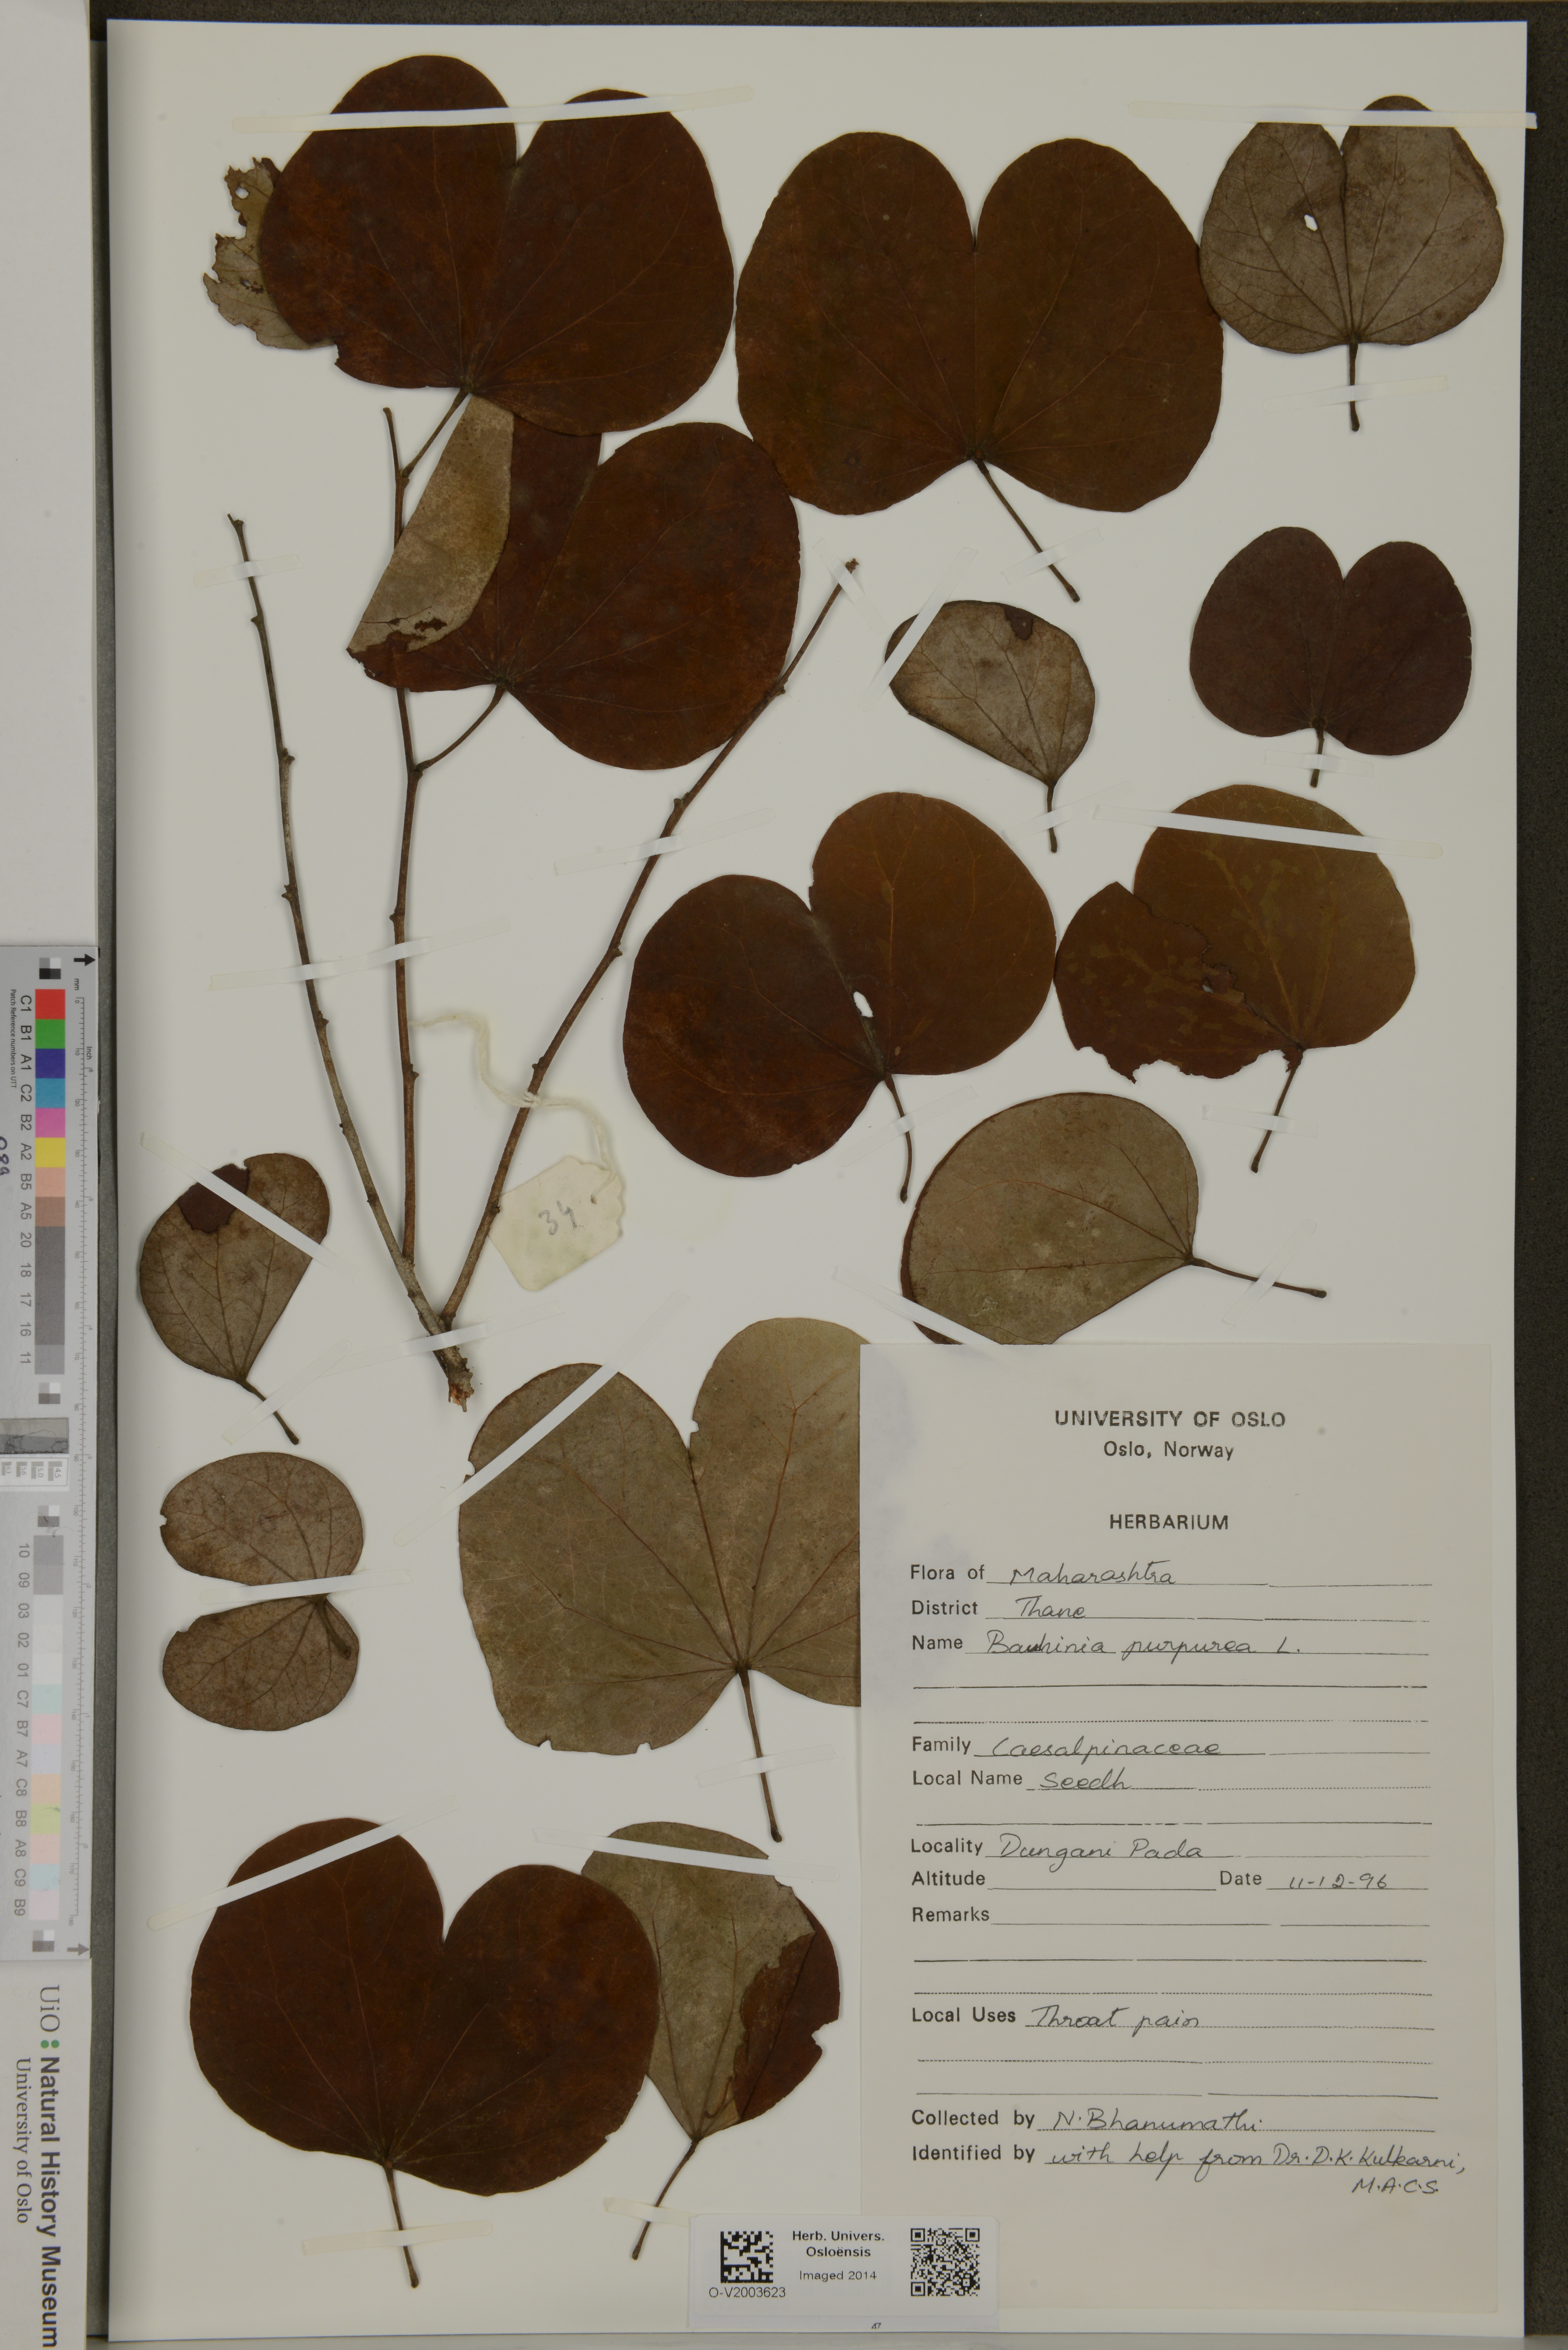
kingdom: Plantae
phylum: Tracheophyta
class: Magnoliopsida
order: Fabales
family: Fabaceae
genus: Bauhinia
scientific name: Bauhinia purpurea
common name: Butterfly-tree
